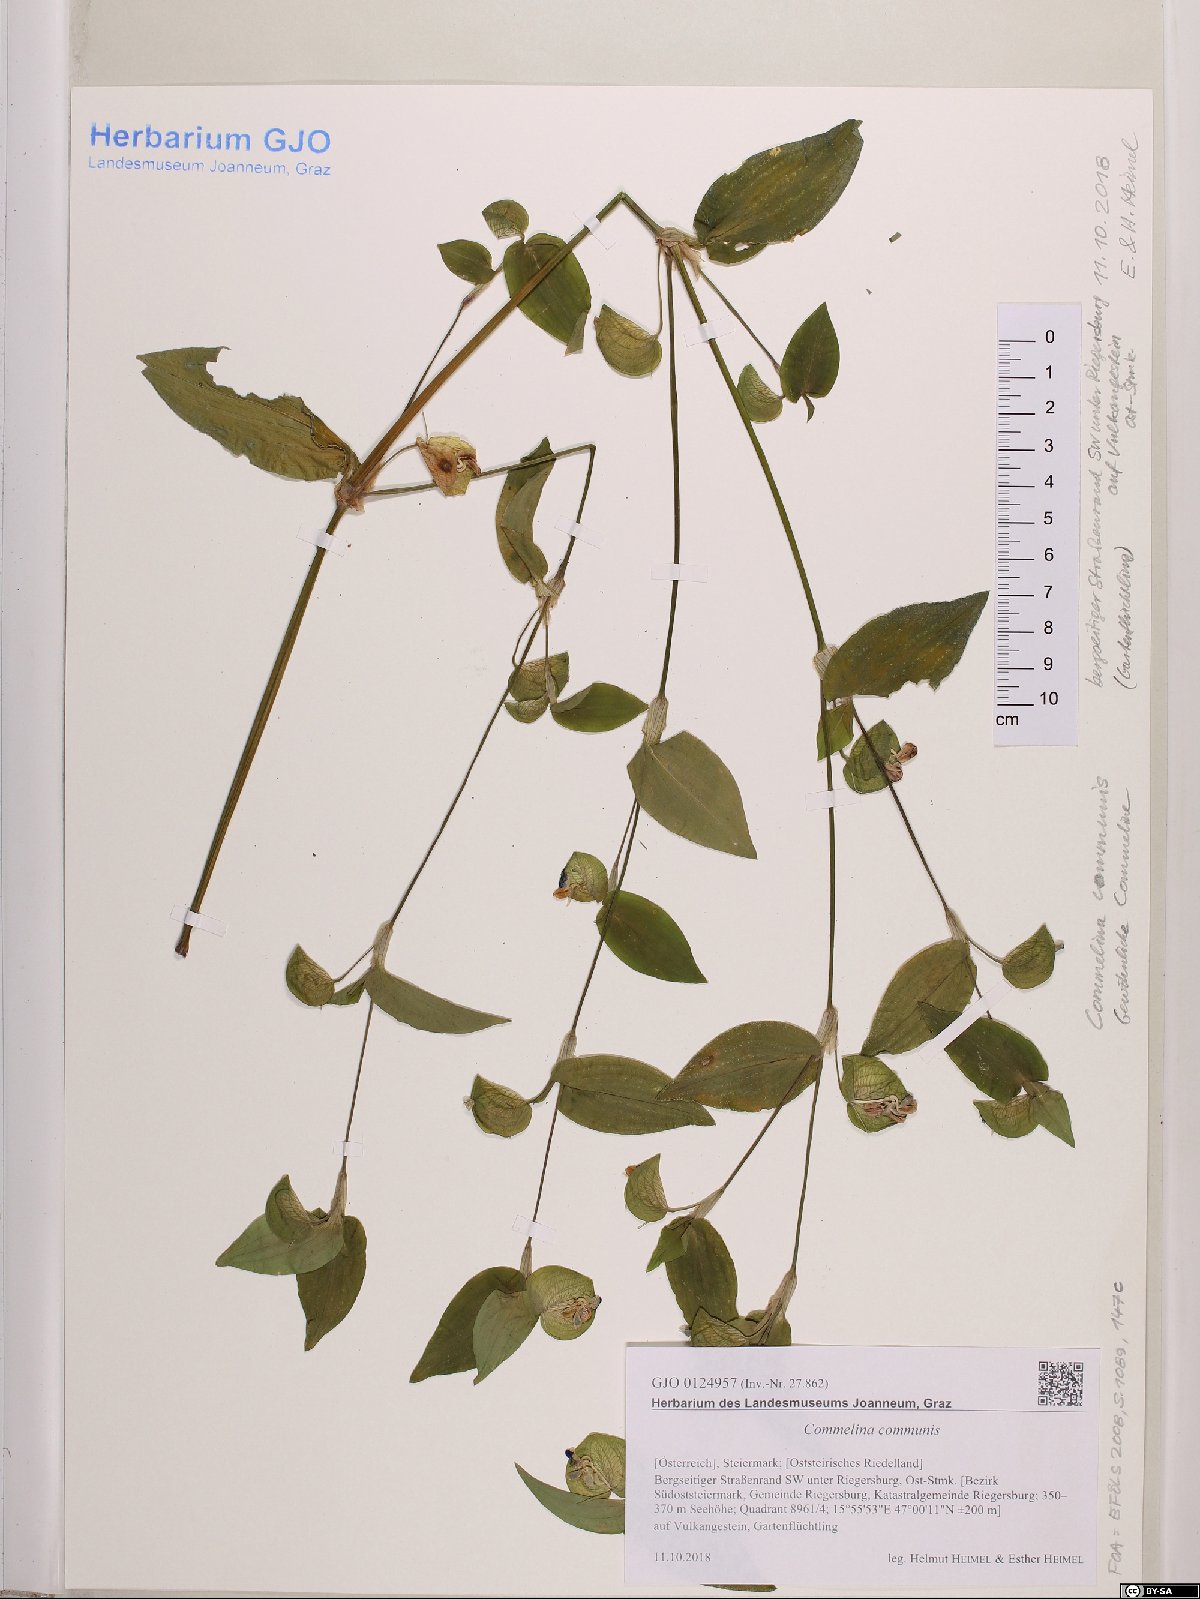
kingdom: Plantae
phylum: Tracheophyta
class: Liliopsida
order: Commelinales
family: Commelinaceae
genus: Commelina
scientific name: Commelina communis
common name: Asiatic dayflower
